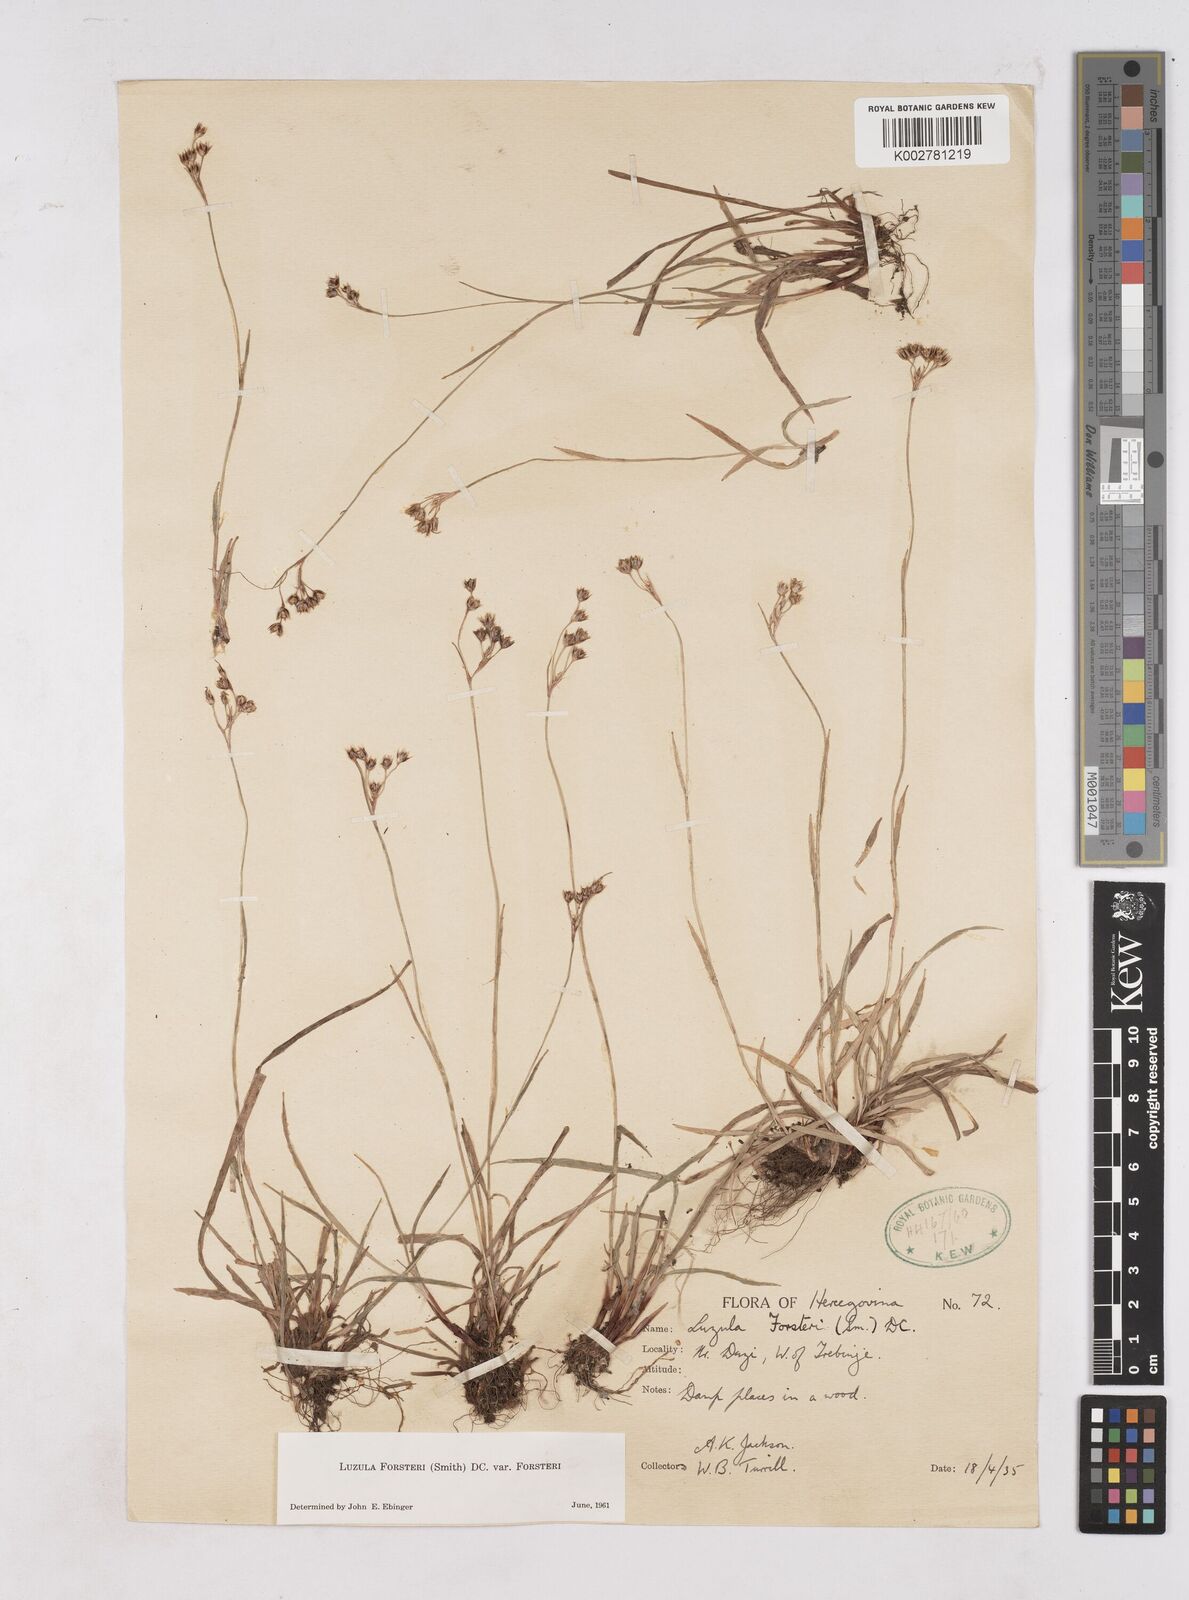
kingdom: Plantae
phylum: Tracheophyta
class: Liliopsida
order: Poales
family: Juncaceae
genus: Luzula
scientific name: Luzula forsteri
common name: Southern wood-rush
